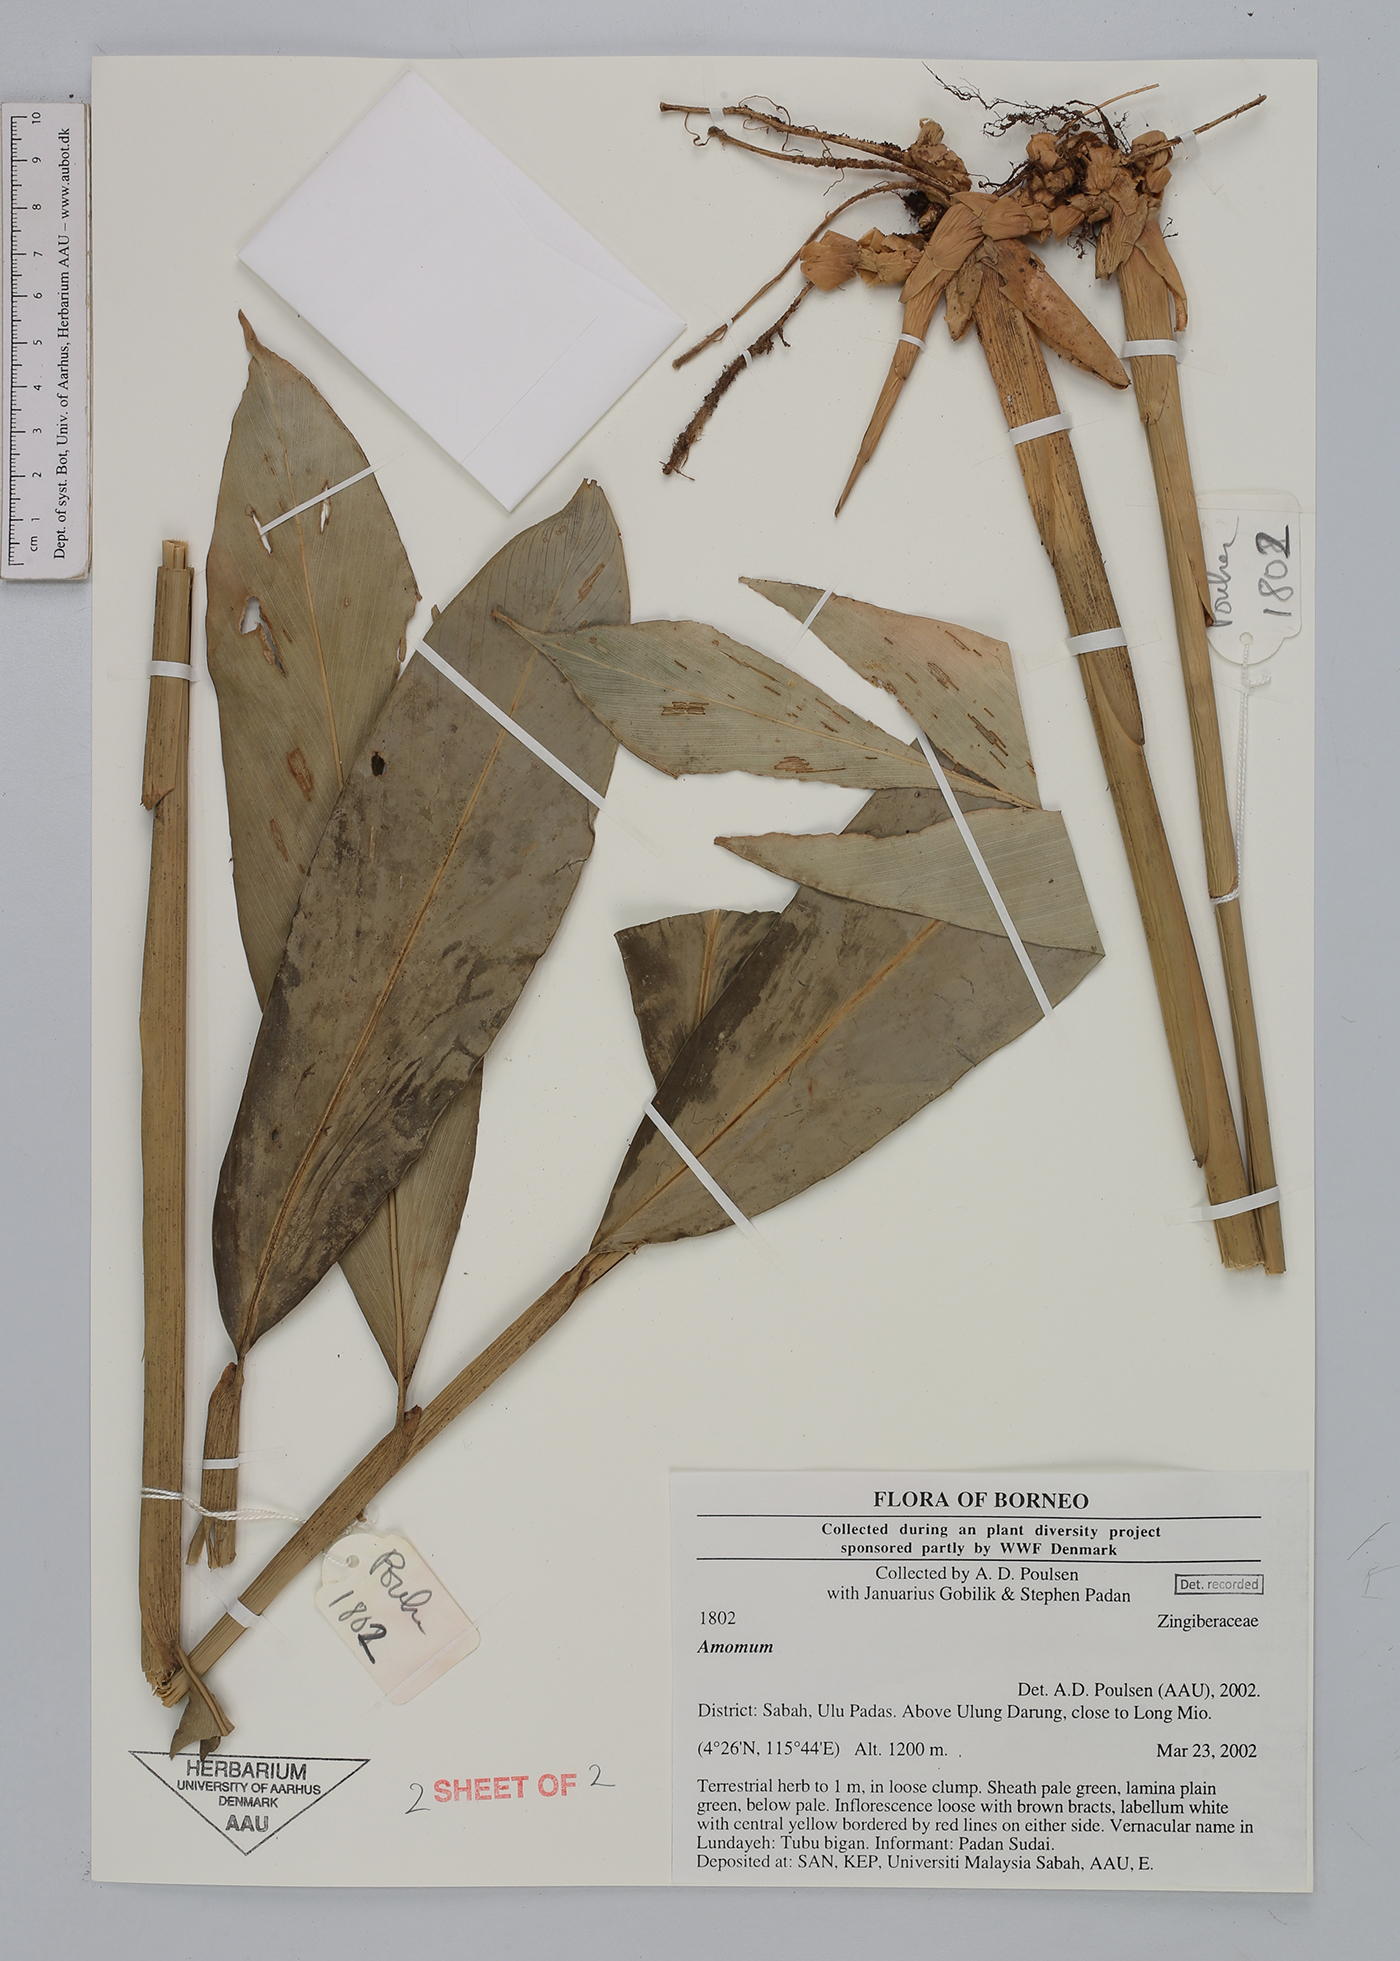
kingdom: Plantae
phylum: Tracheophyta
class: Liliopsida
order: Zingiberales
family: Zingiberaceae
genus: Amomum
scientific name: Amomum
